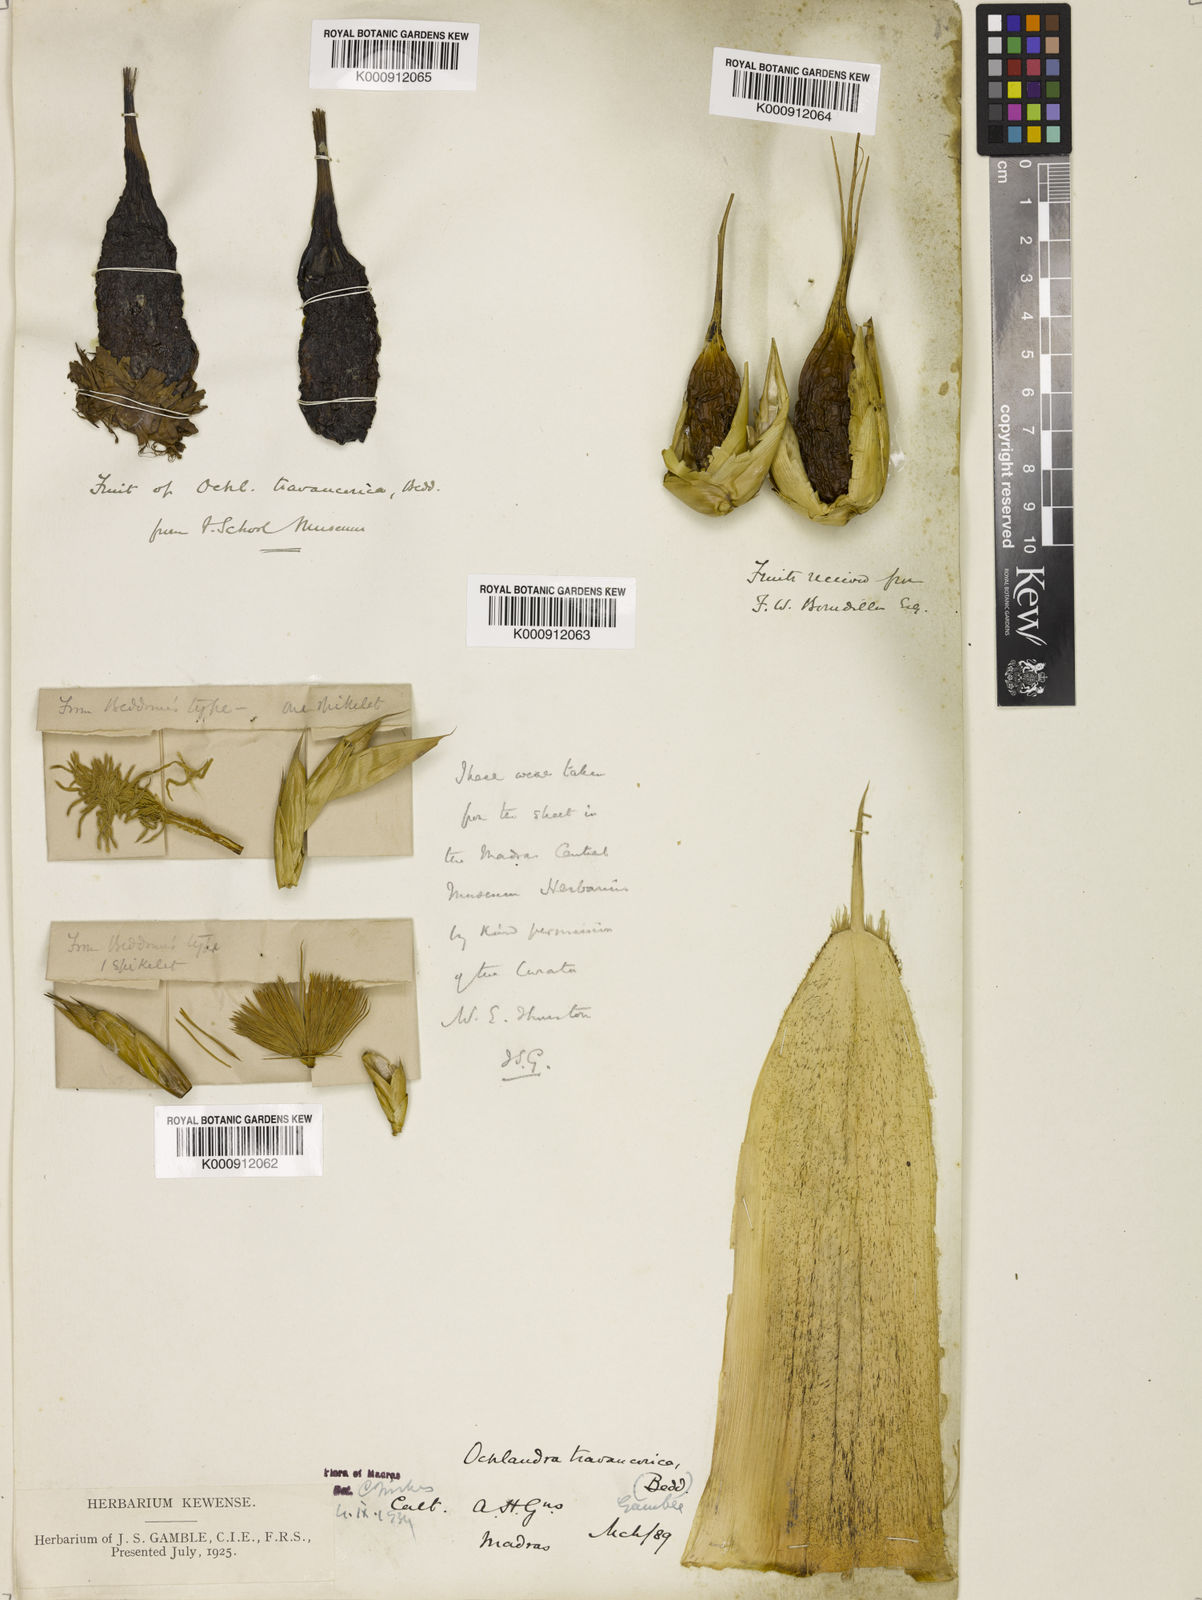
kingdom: Plantae
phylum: Tracheophyta
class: Liliopsida
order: Poales
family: Poaceae
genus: Ochlandra
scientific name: Ochlandra travancorica
